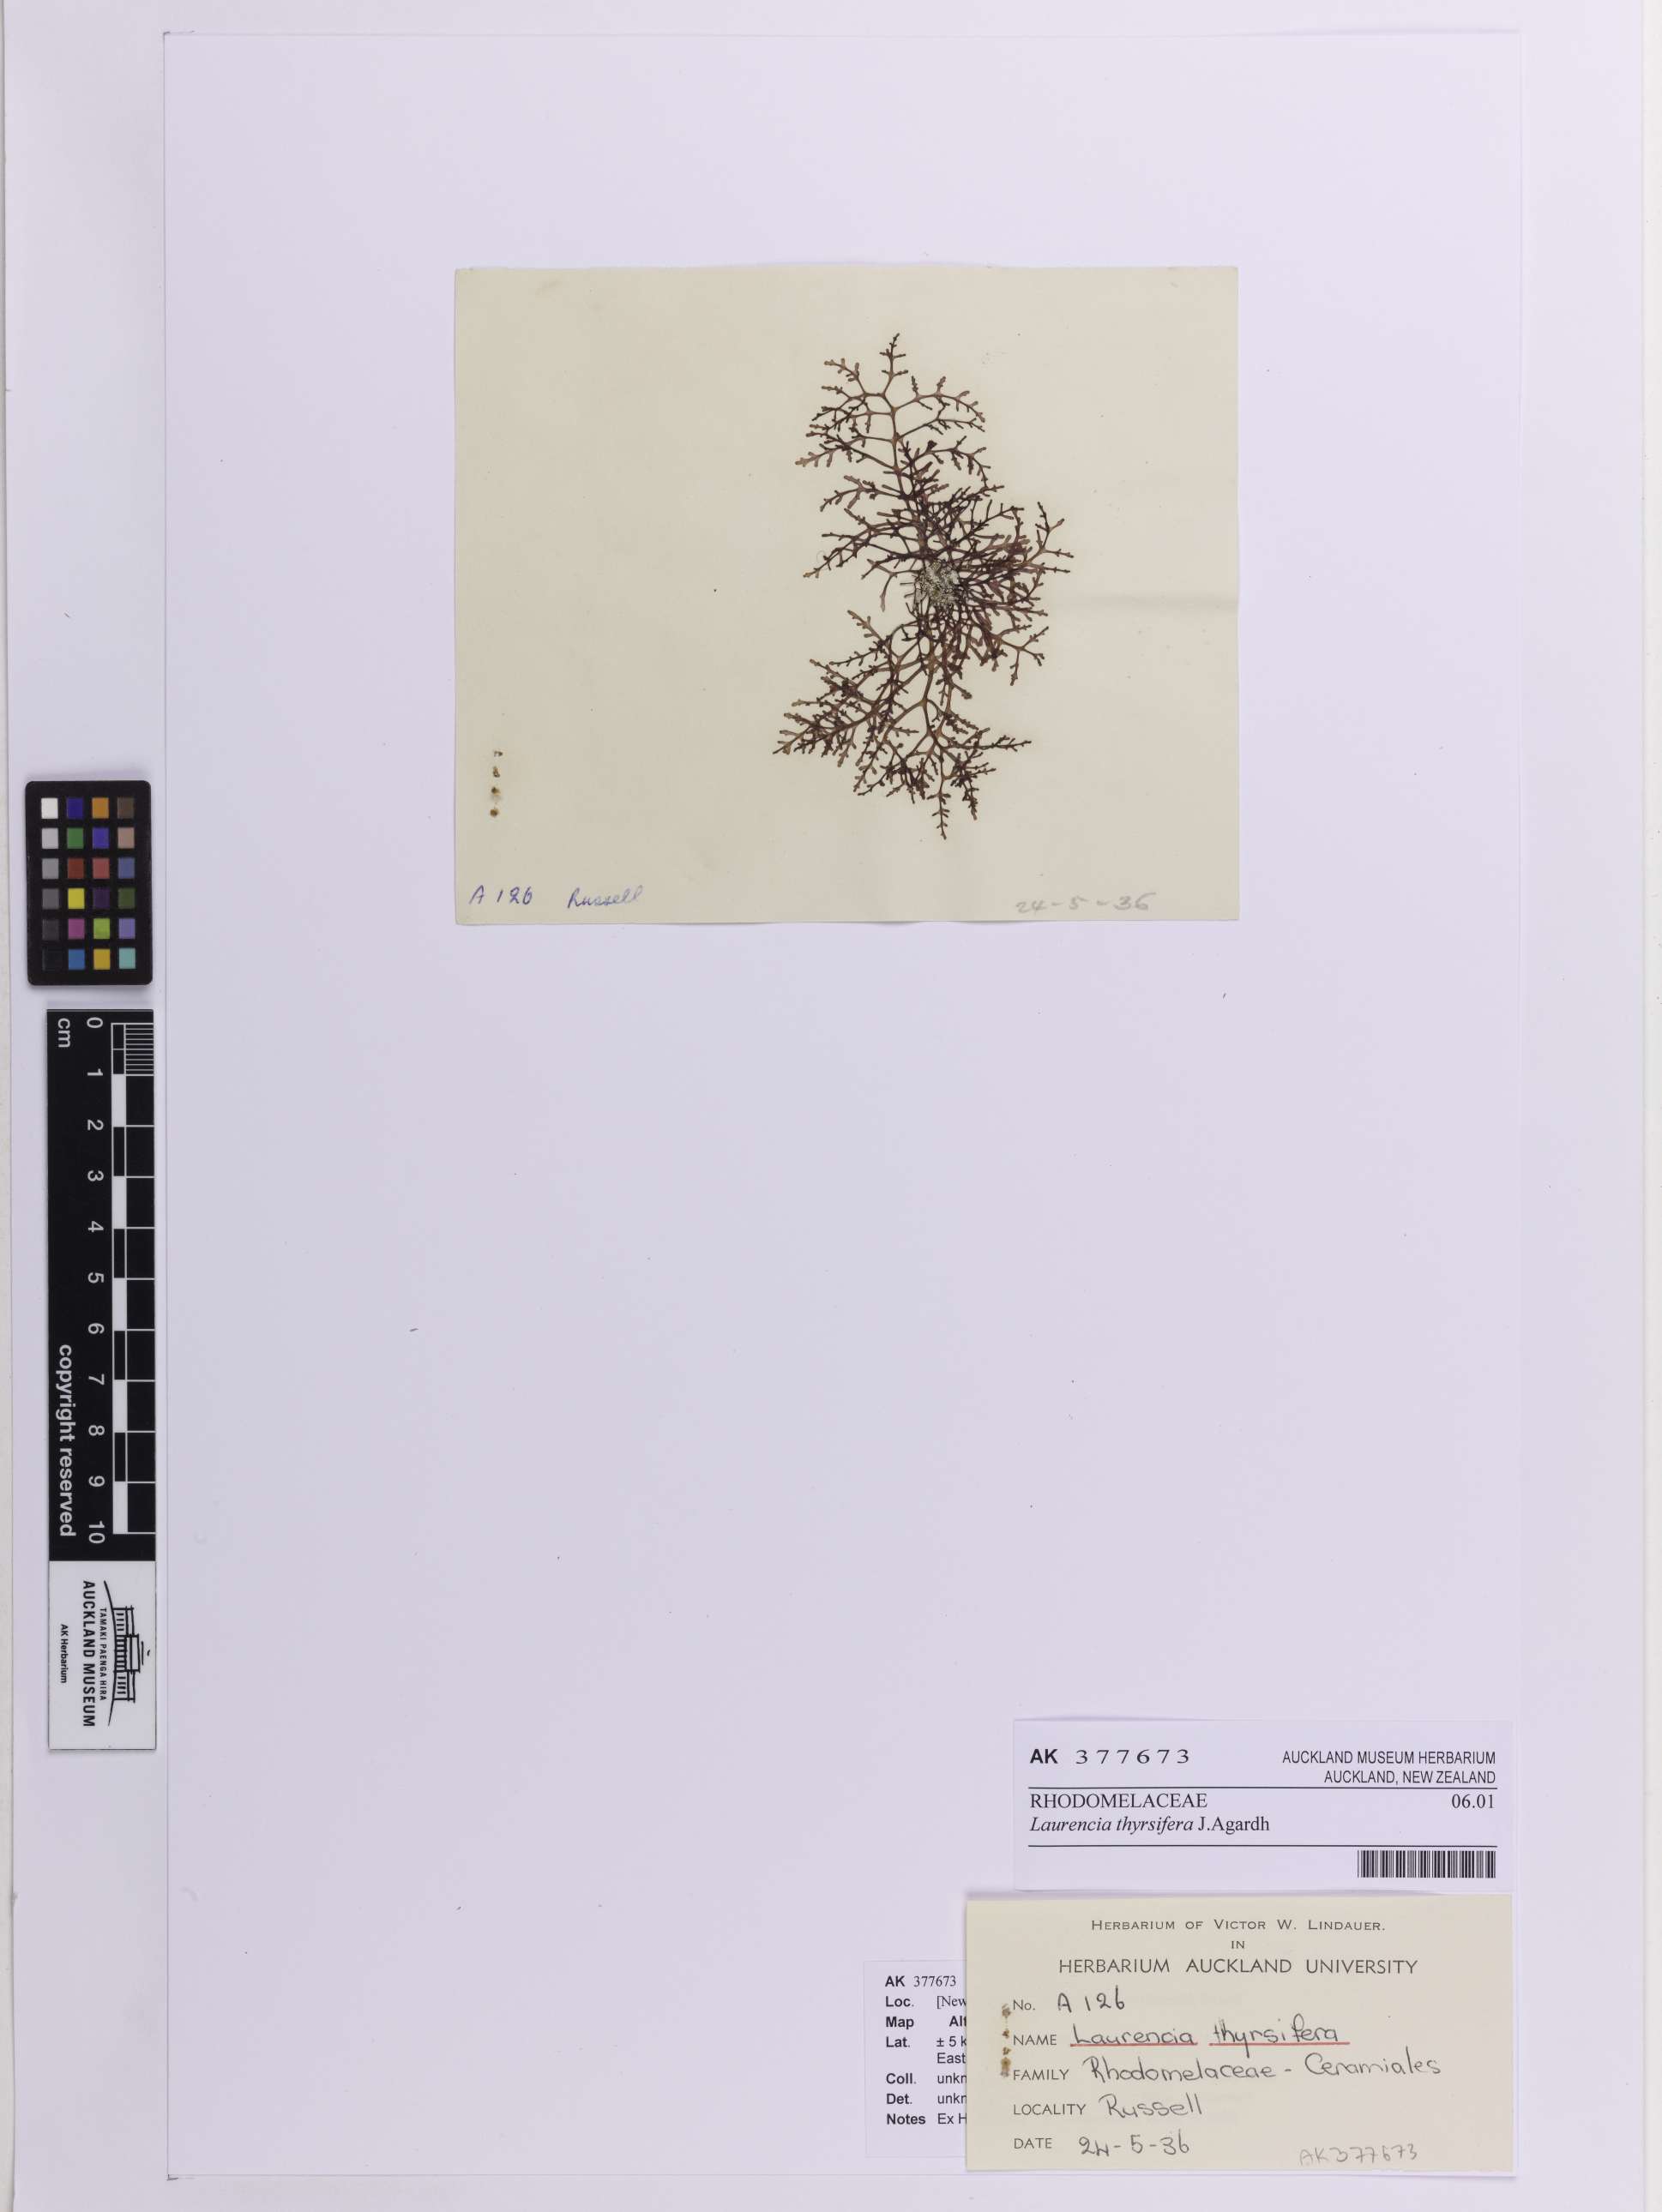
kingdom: Plantae
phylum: Rhodophyta
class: Florideophyceae
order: Ceramiales
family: Rhodomelaceae
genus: Laurencia
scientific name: Laurencia thyrsifera
